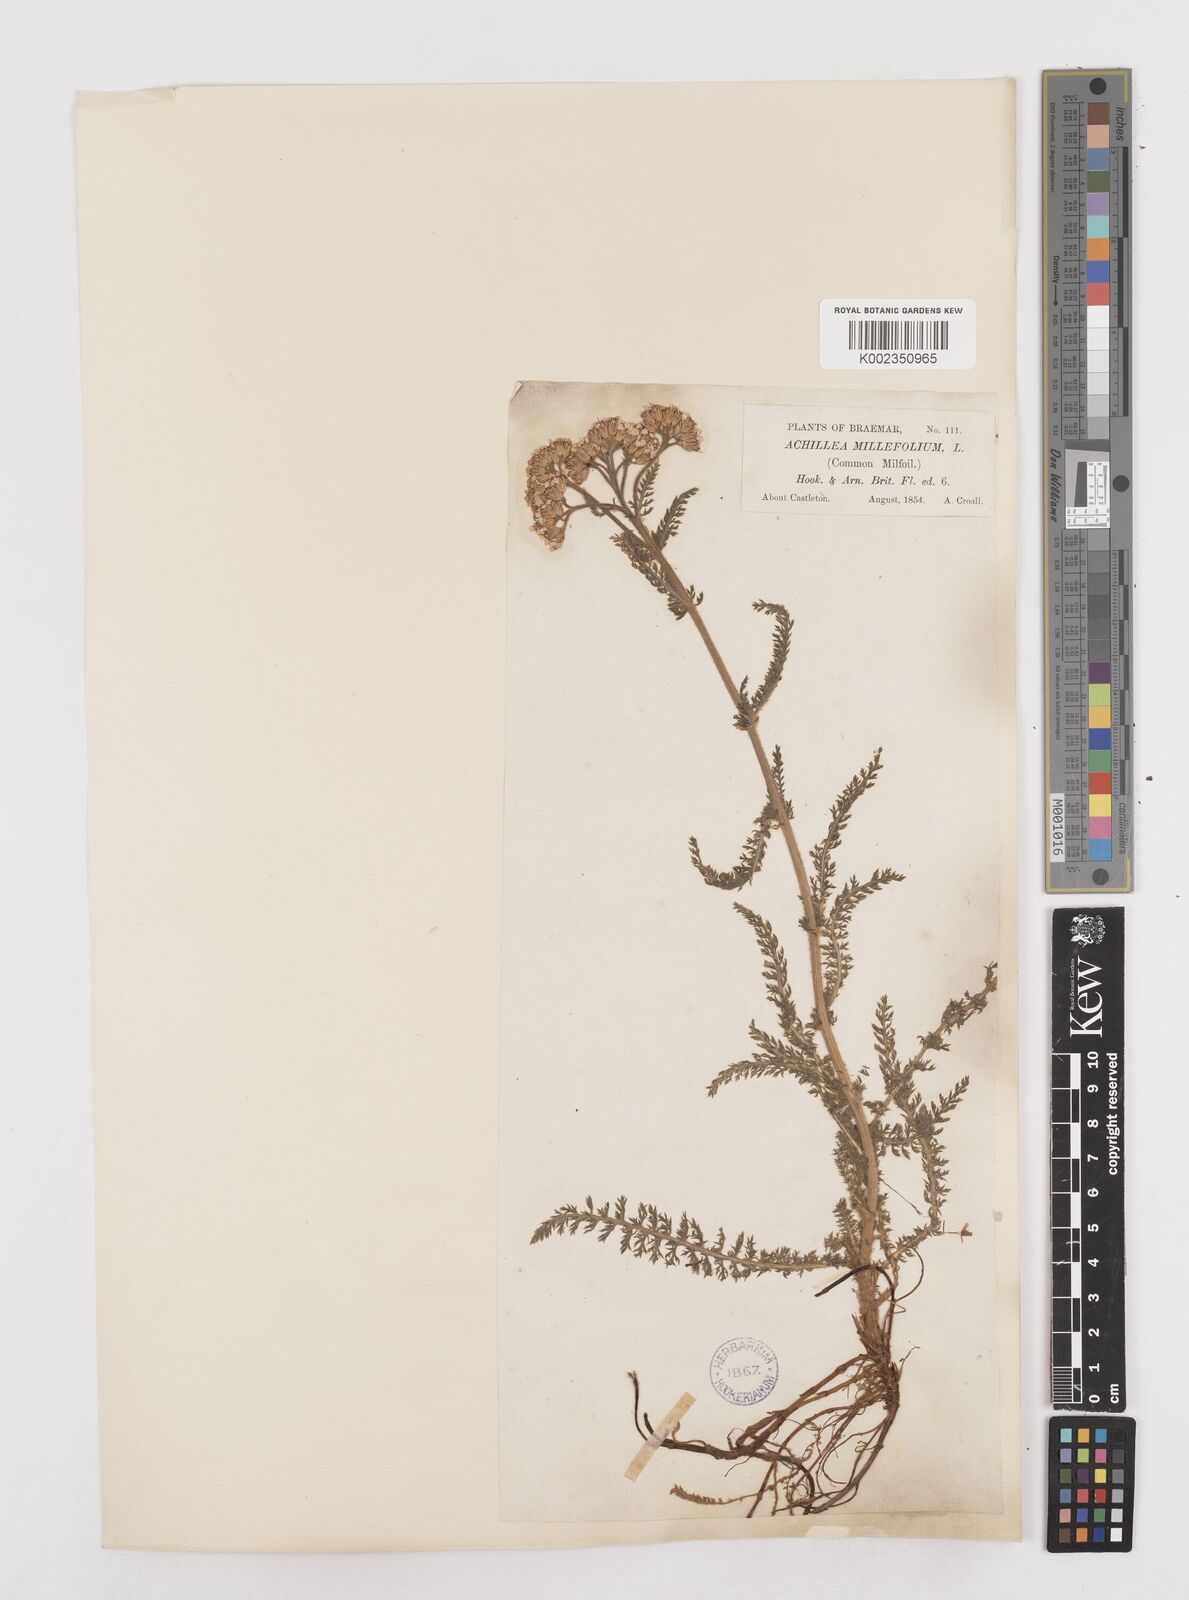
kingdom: Plantae
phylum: Tracheophyta
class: Magnoliopsida
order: Asterales
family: Asteraceae
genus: Achillea
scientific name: Achillea millefolium
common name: Yarrow
